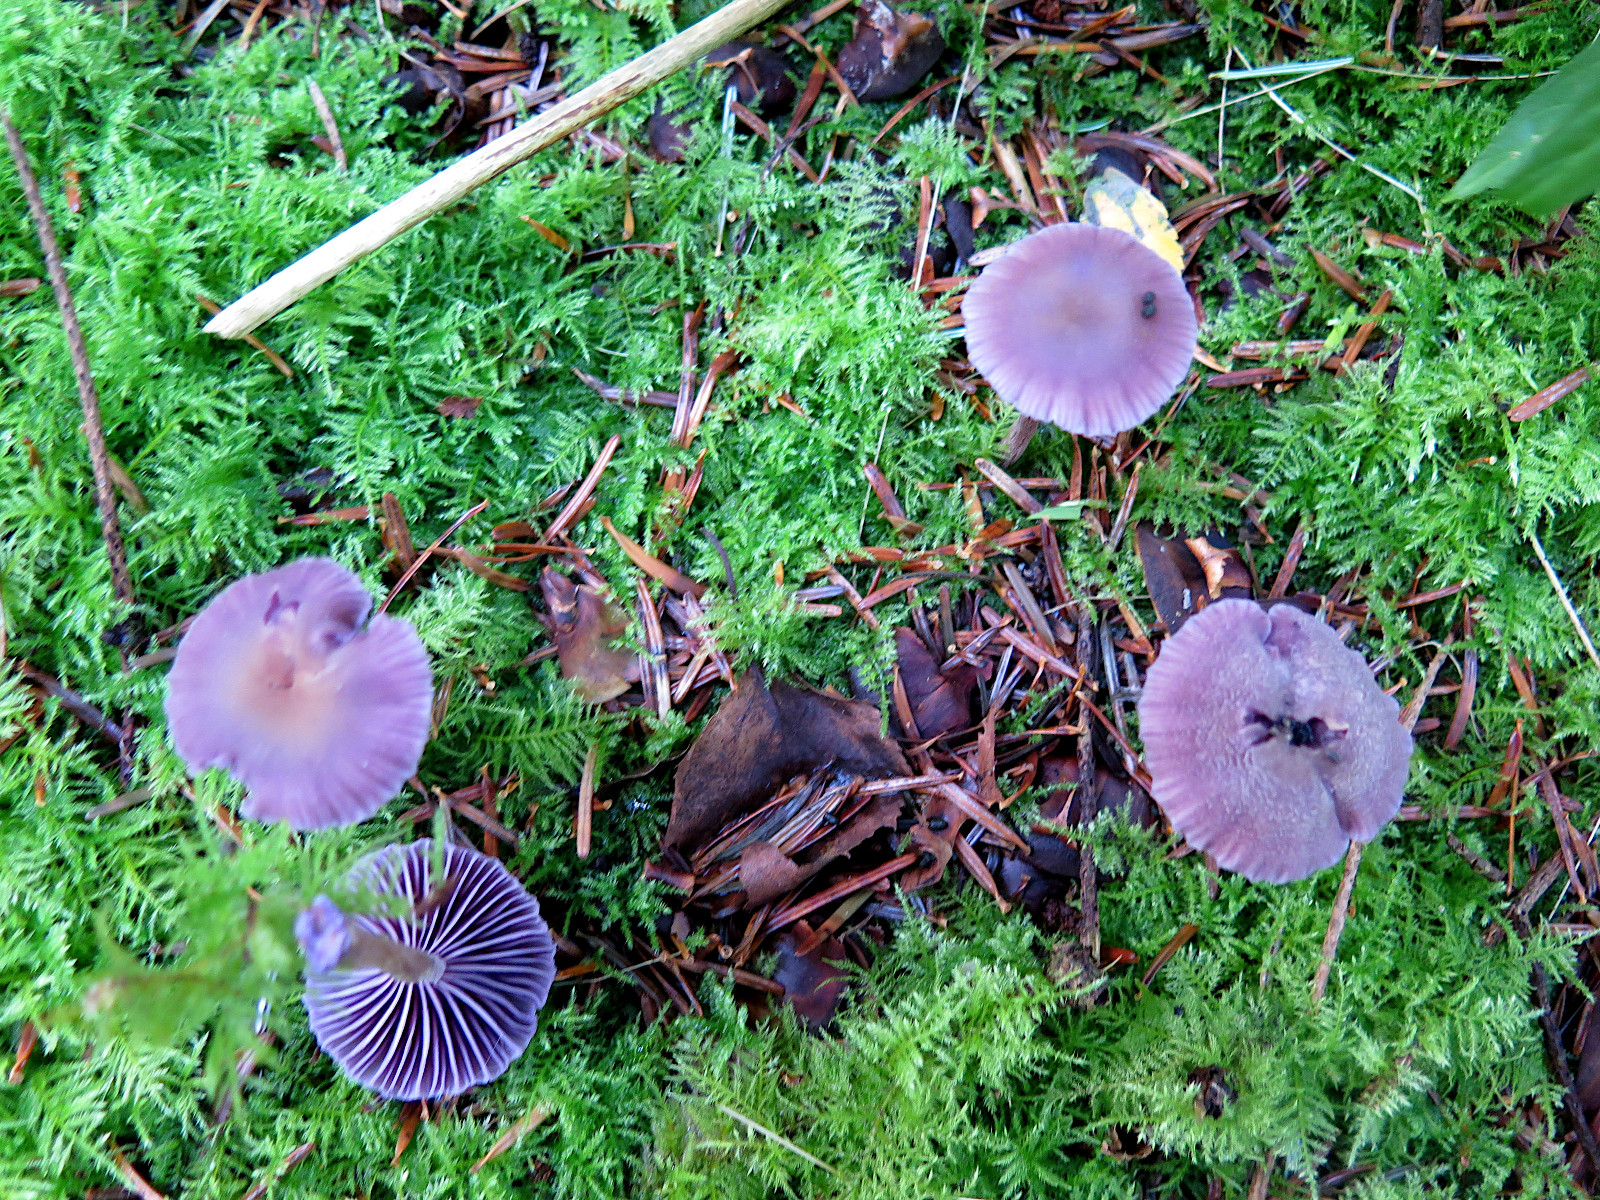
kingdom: Fungi
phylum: Basidiomycota
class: Agaricomycetes
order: Agaricales
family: Hydnangiaceae
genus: Laccaria
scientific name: Laccaria amethystina
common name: violet ametysthat
